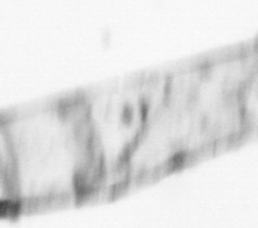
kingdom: Animalia
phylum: Chordata
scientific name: Chordata
